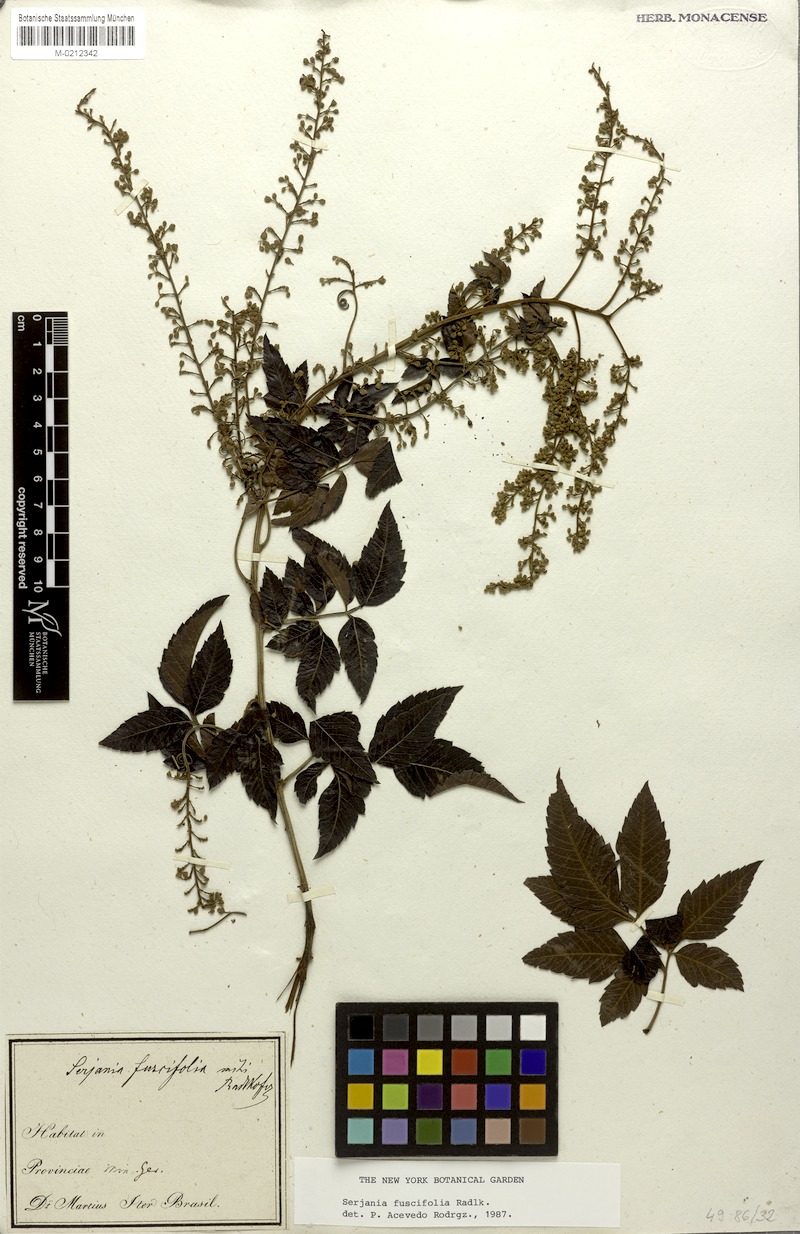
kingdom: Plantae
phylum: Tracheophyta
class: Magnoliopsida
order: Sapindales
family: Sapindaceae
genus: Serjania
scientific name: Serjania fuscifolia
